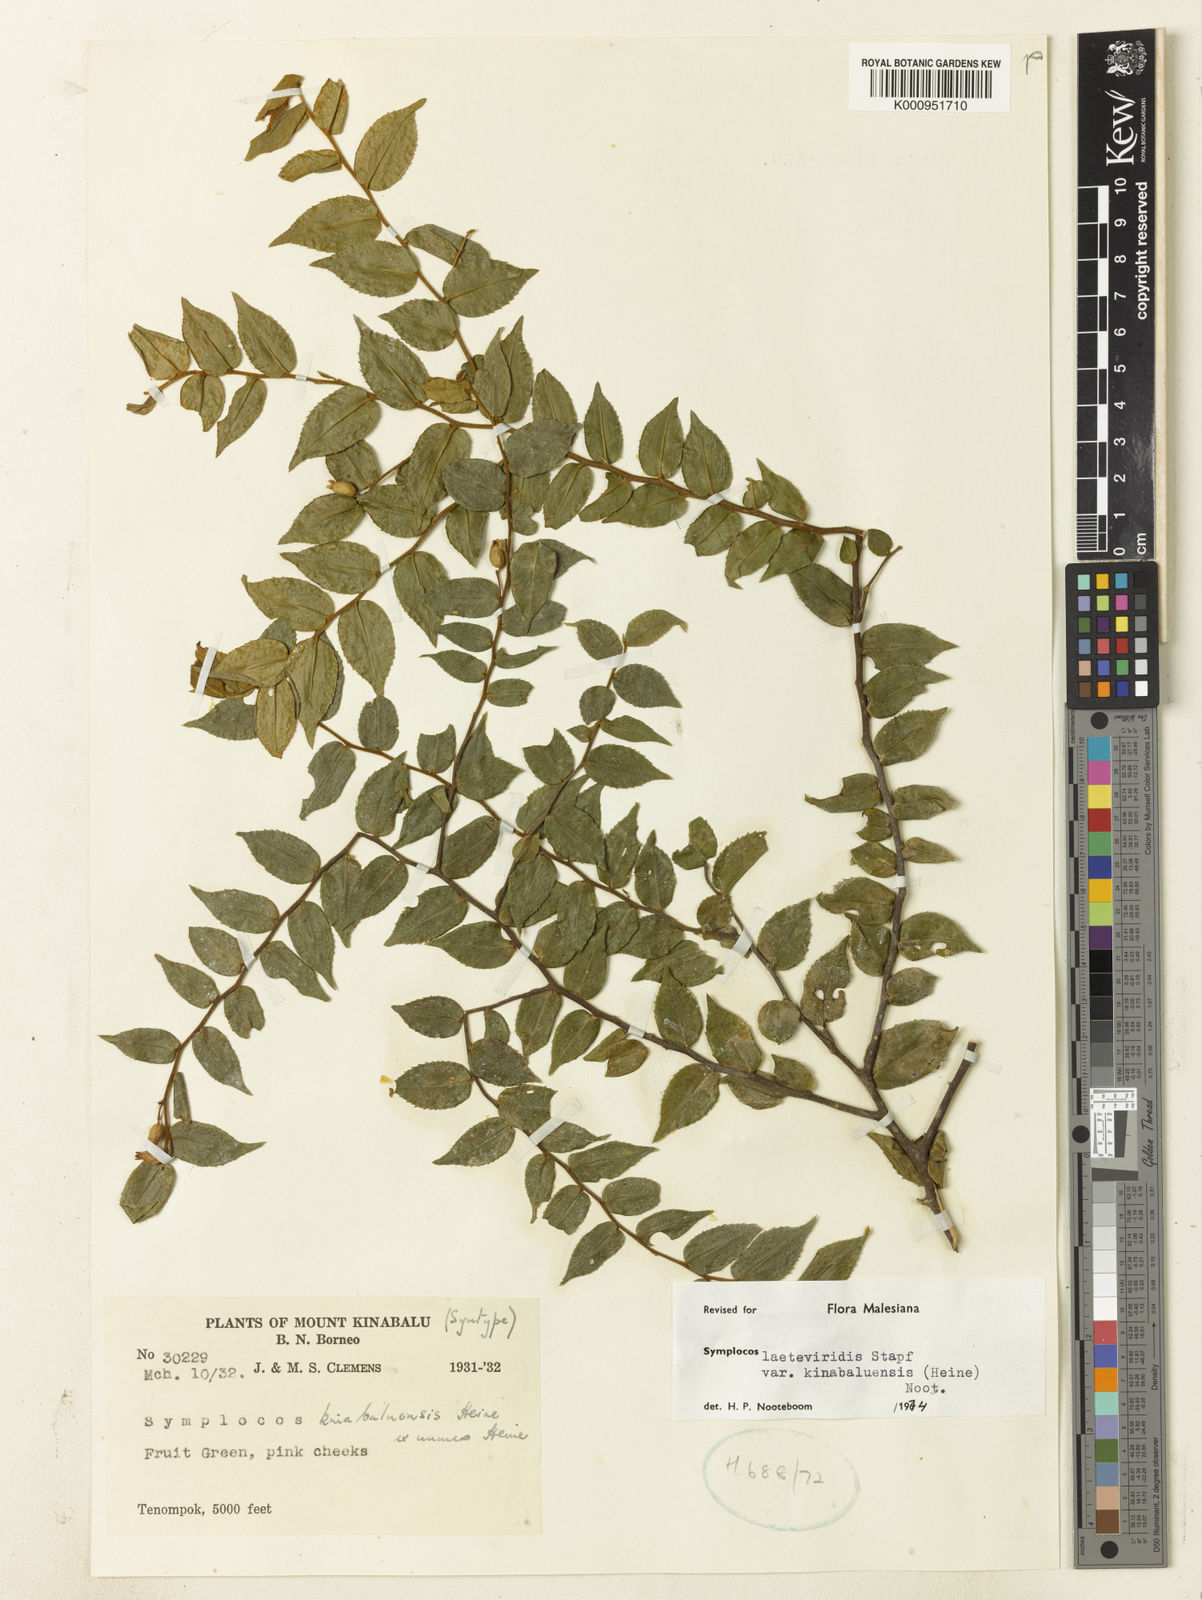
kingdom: Plantae
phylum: Tracheophyta
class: Magnoliopsida
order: Ericales
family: Symplocaceae
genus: Symplocos
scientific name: Symplocos laeteviridis
